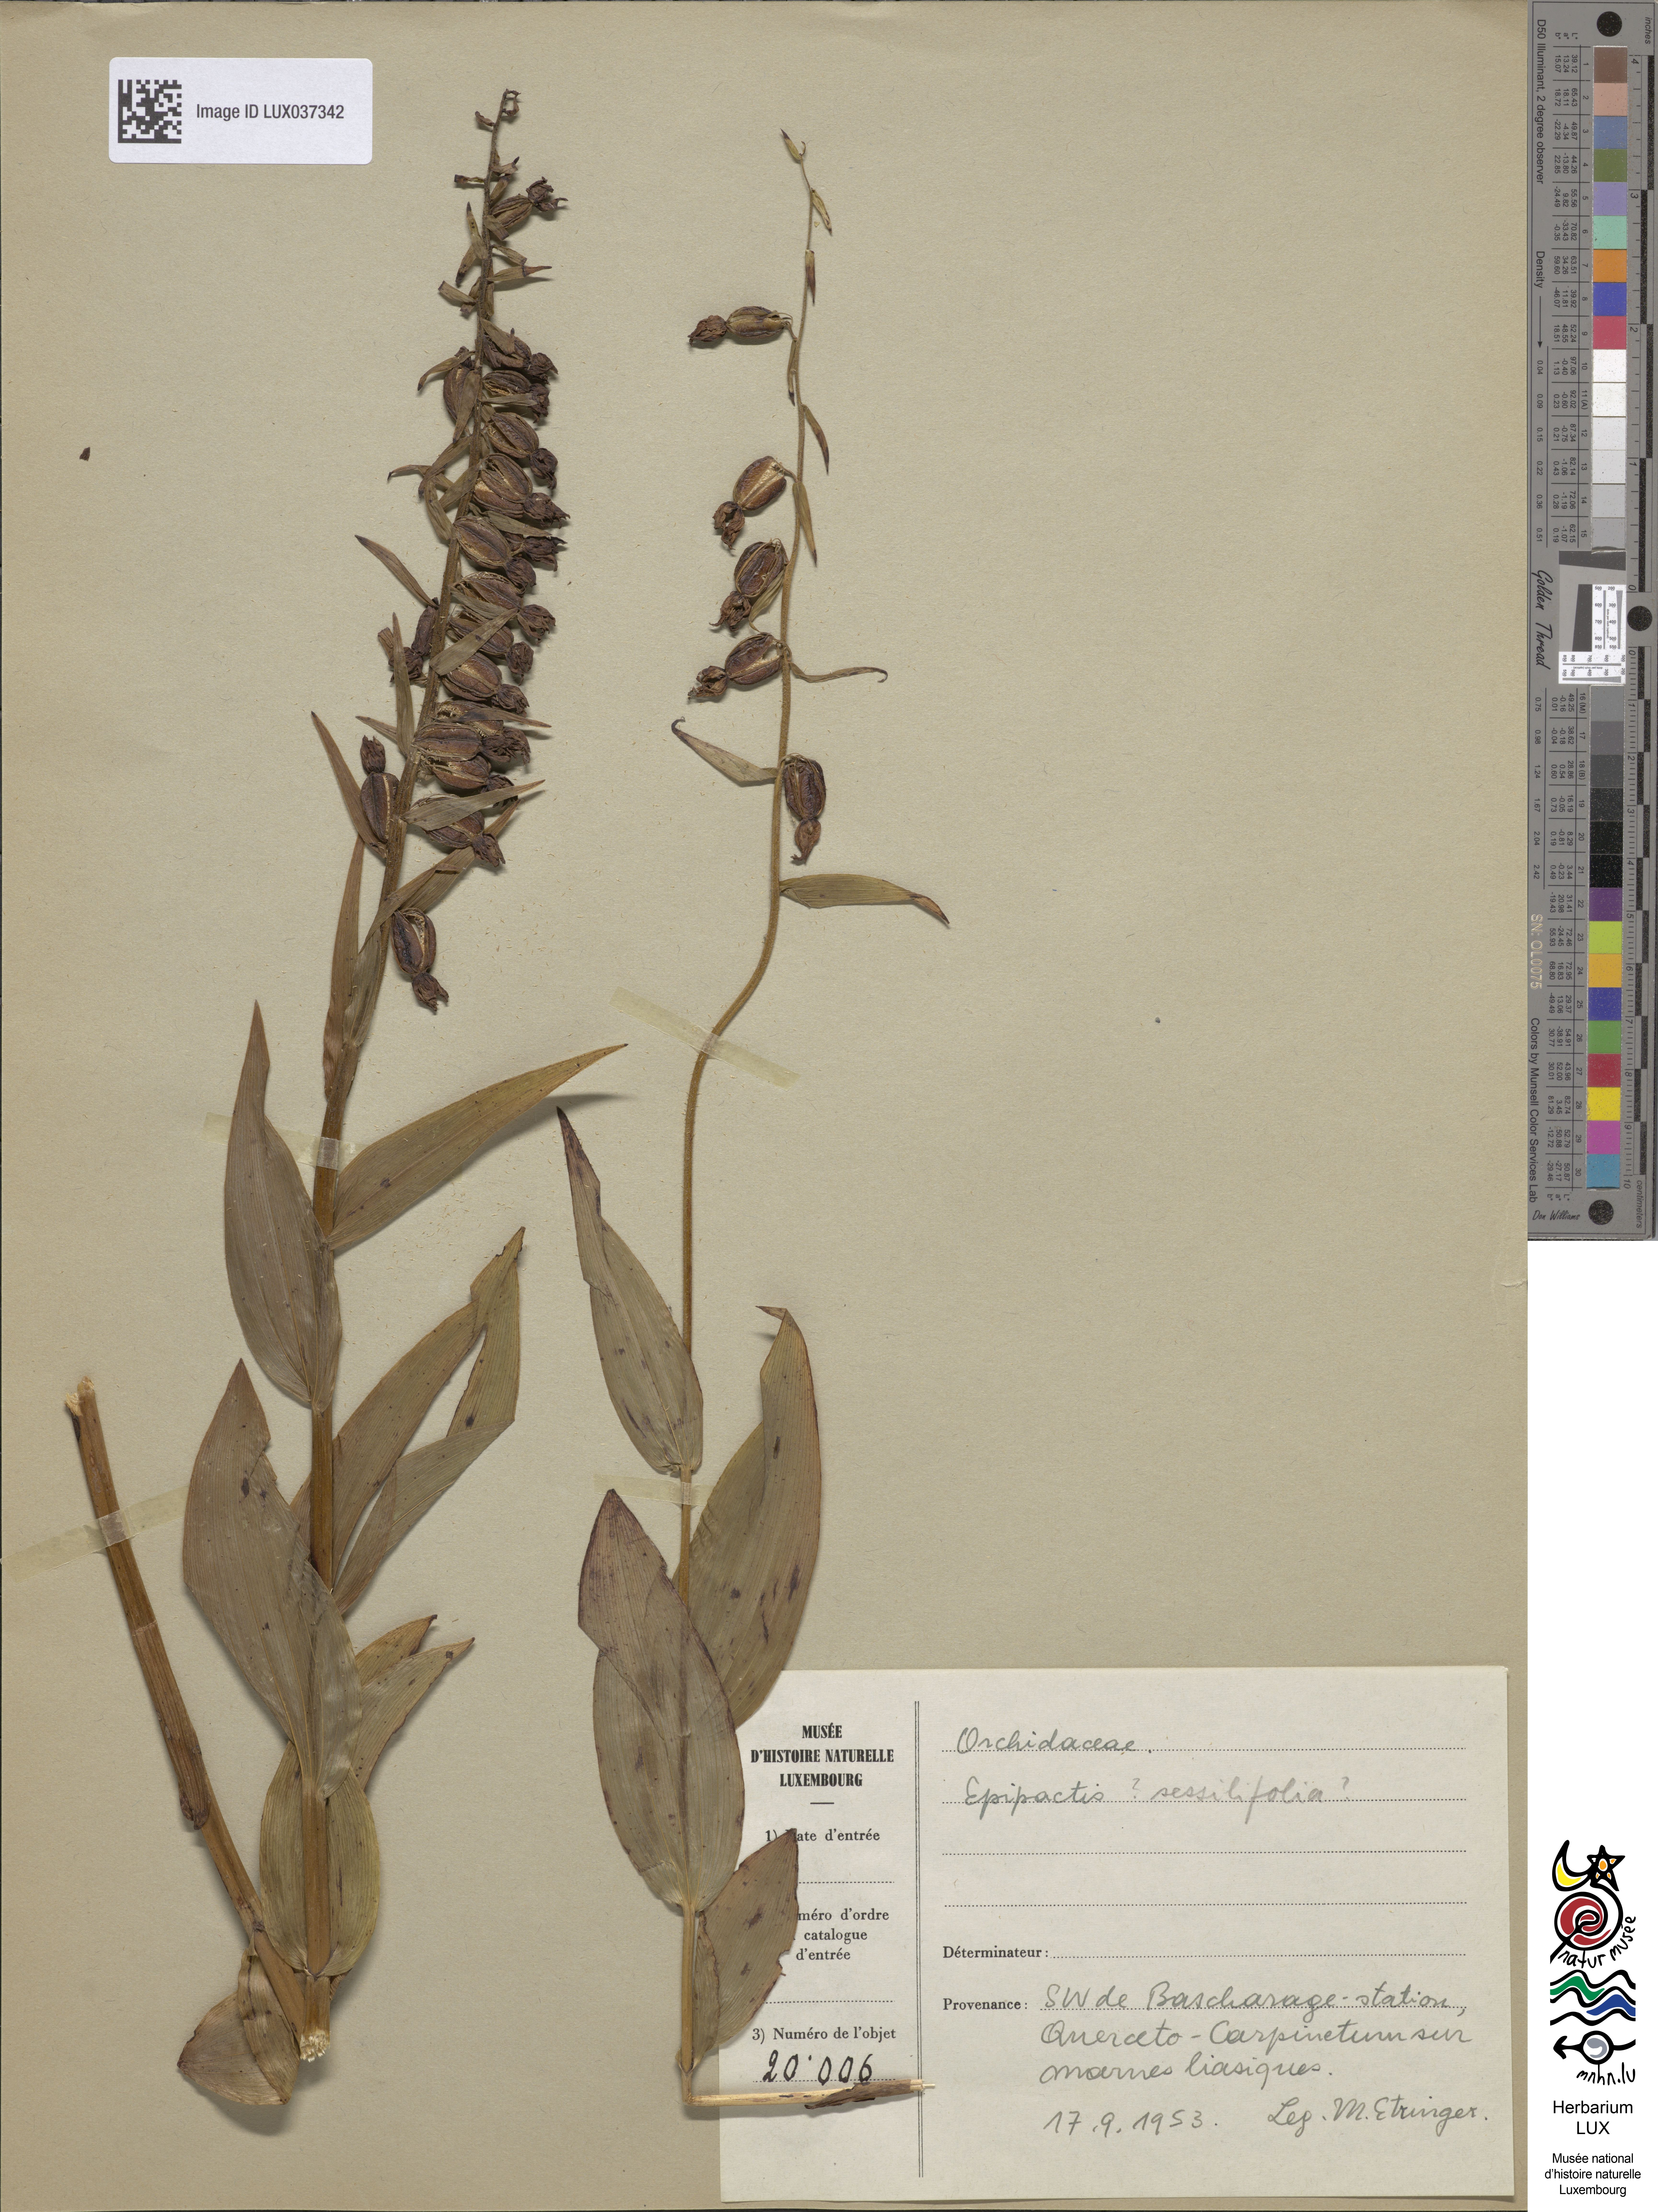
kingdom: Plantae
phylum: Tracheophyta
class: Liliopsida
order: Asparagales
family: Orchidaceae
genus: Epipactis
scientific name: Epipactis
